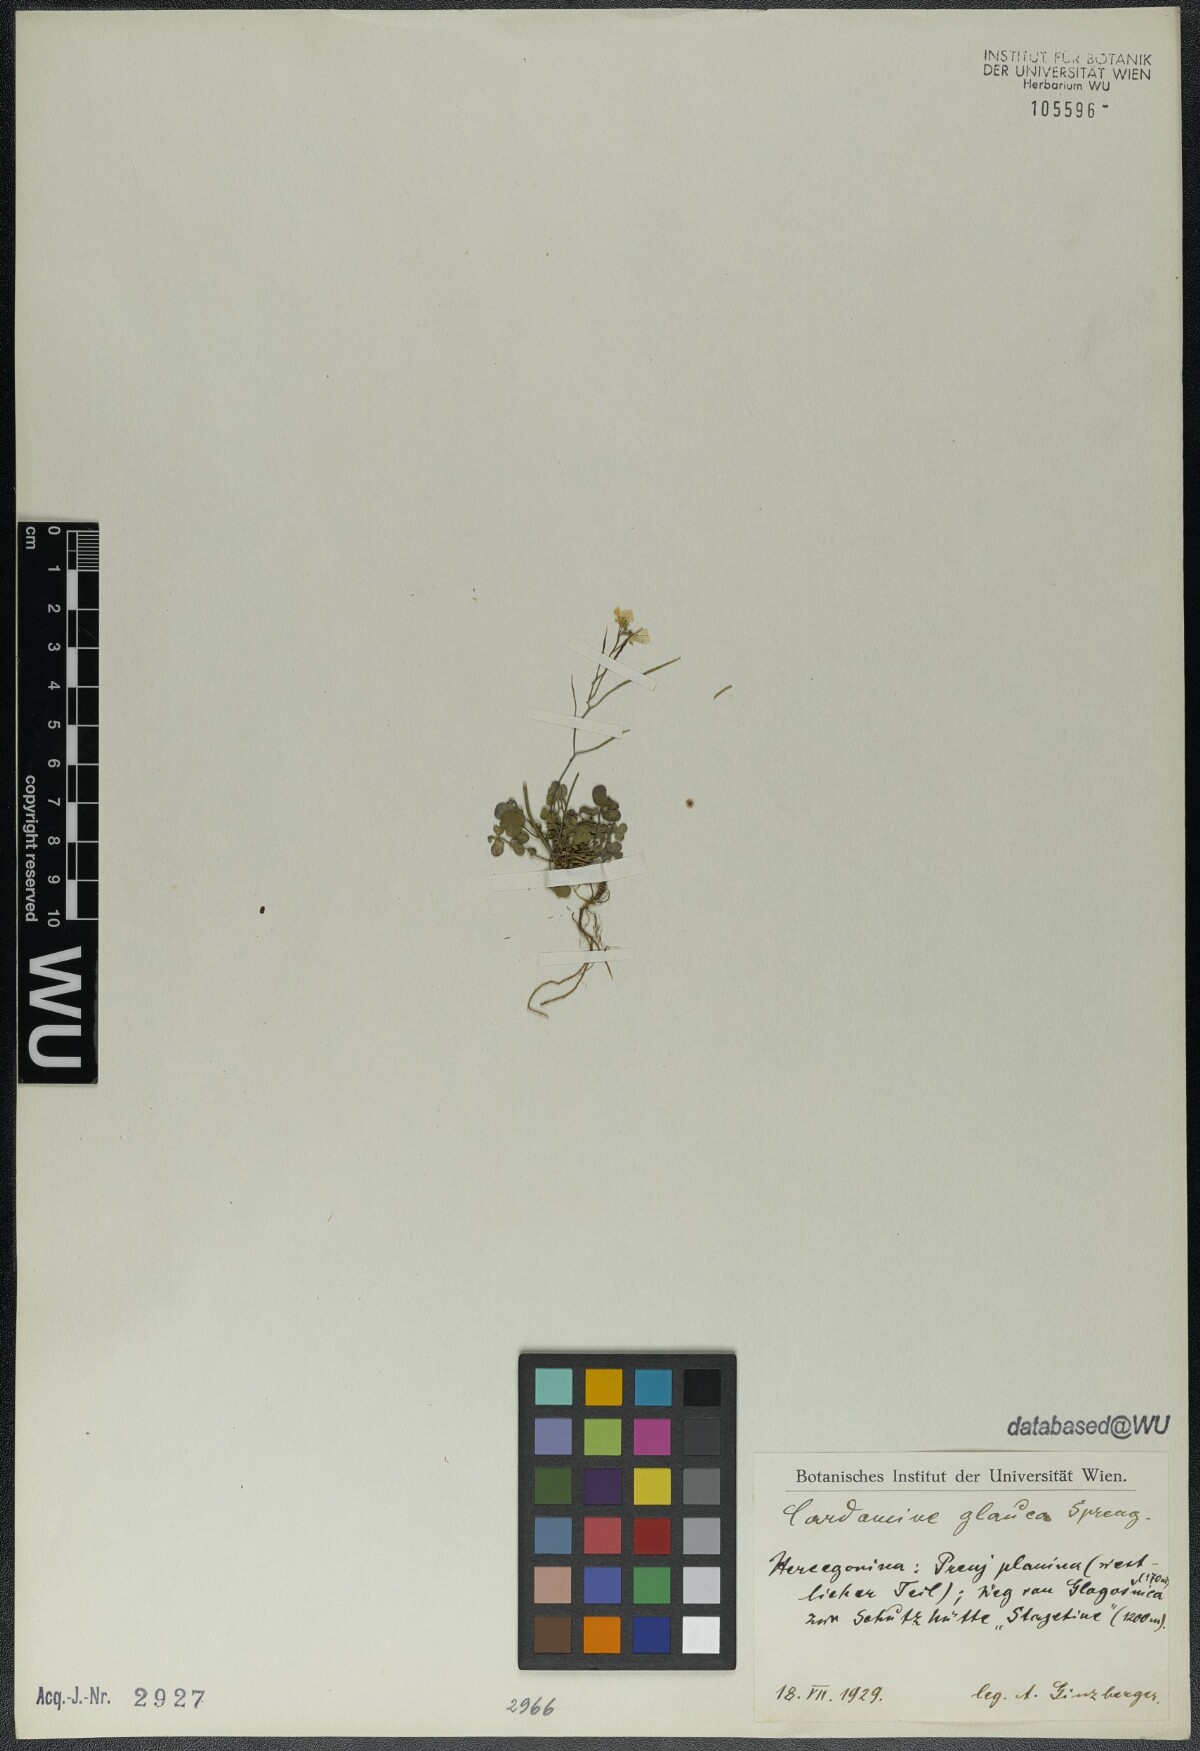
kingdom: Plantae
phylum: Tracheophyta
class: Magnoliopsida
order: Brassicales
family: Brassicaceae
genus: Cardamine
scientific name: Cardamine glauca
